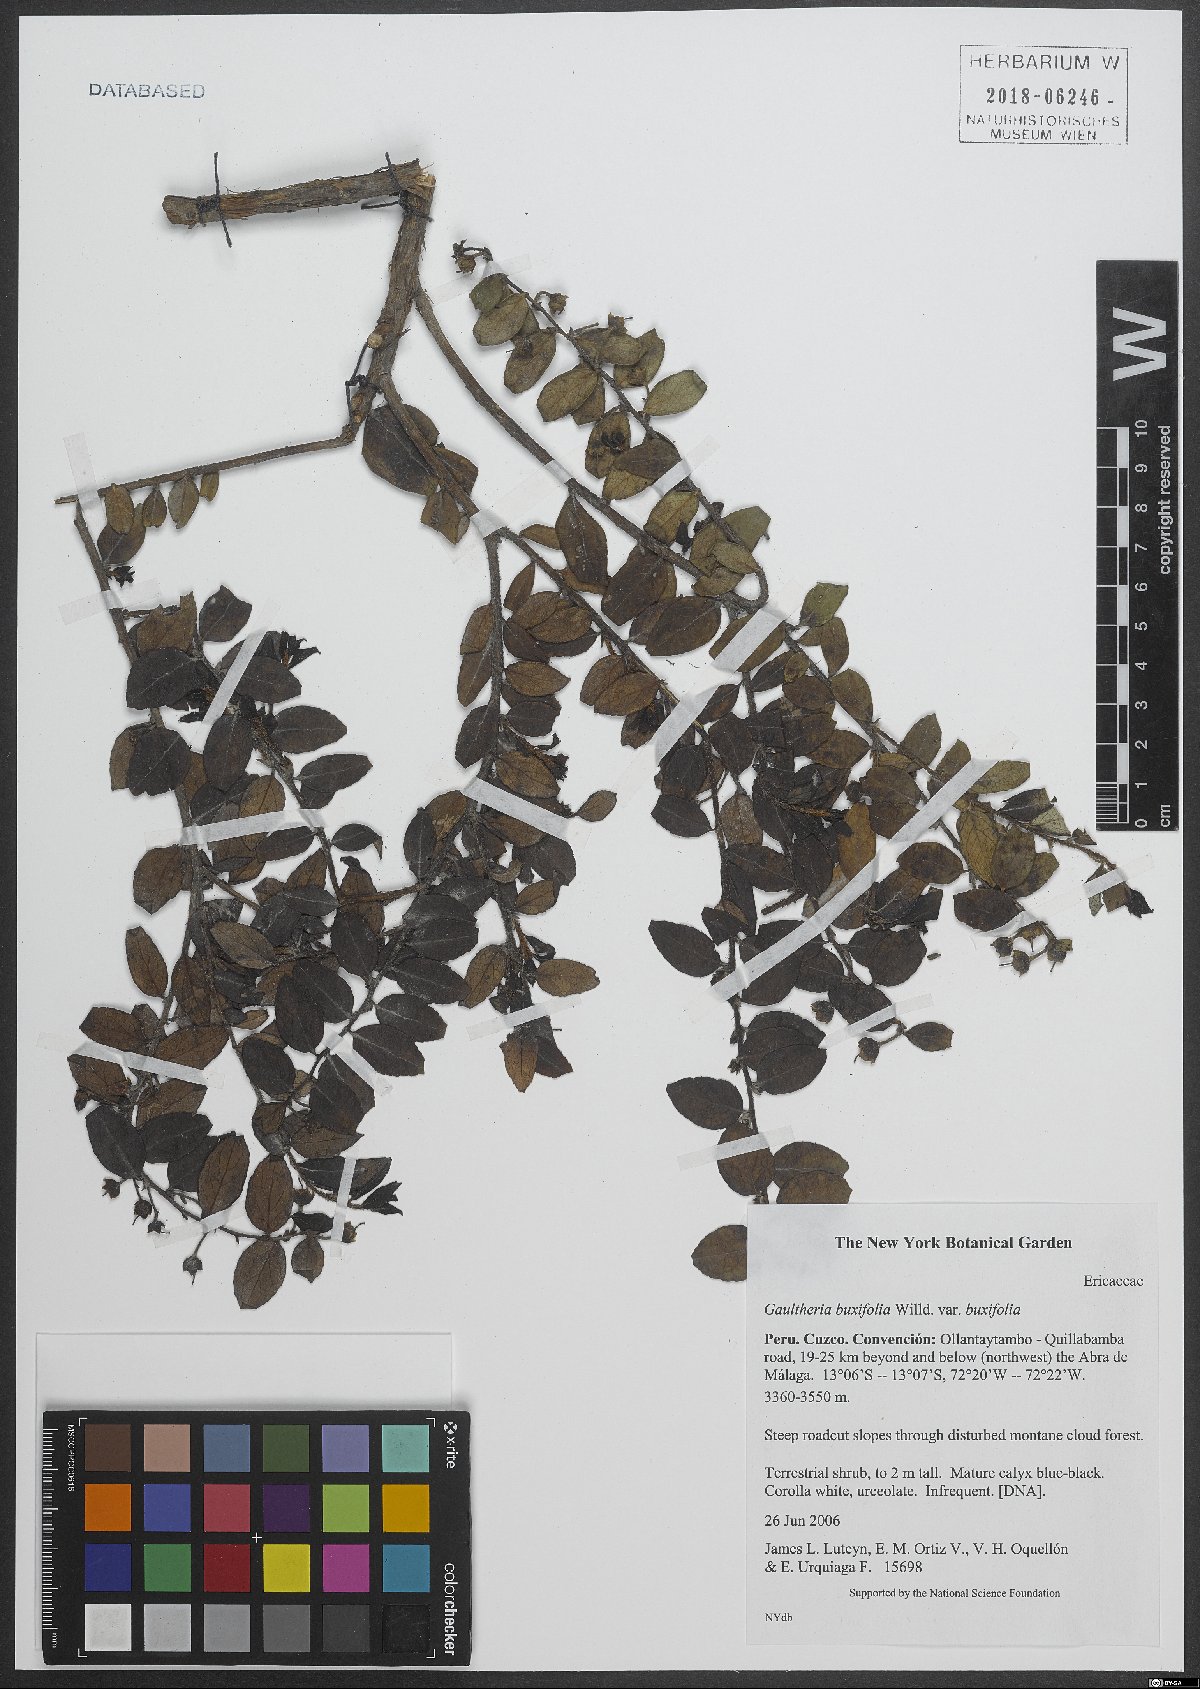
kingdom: Plantae
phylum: Tracheophyta
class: Magnoliopsida
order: Ericales
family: Ericaceae
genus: Gaultheria
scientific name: Gaultheria buxifolia
